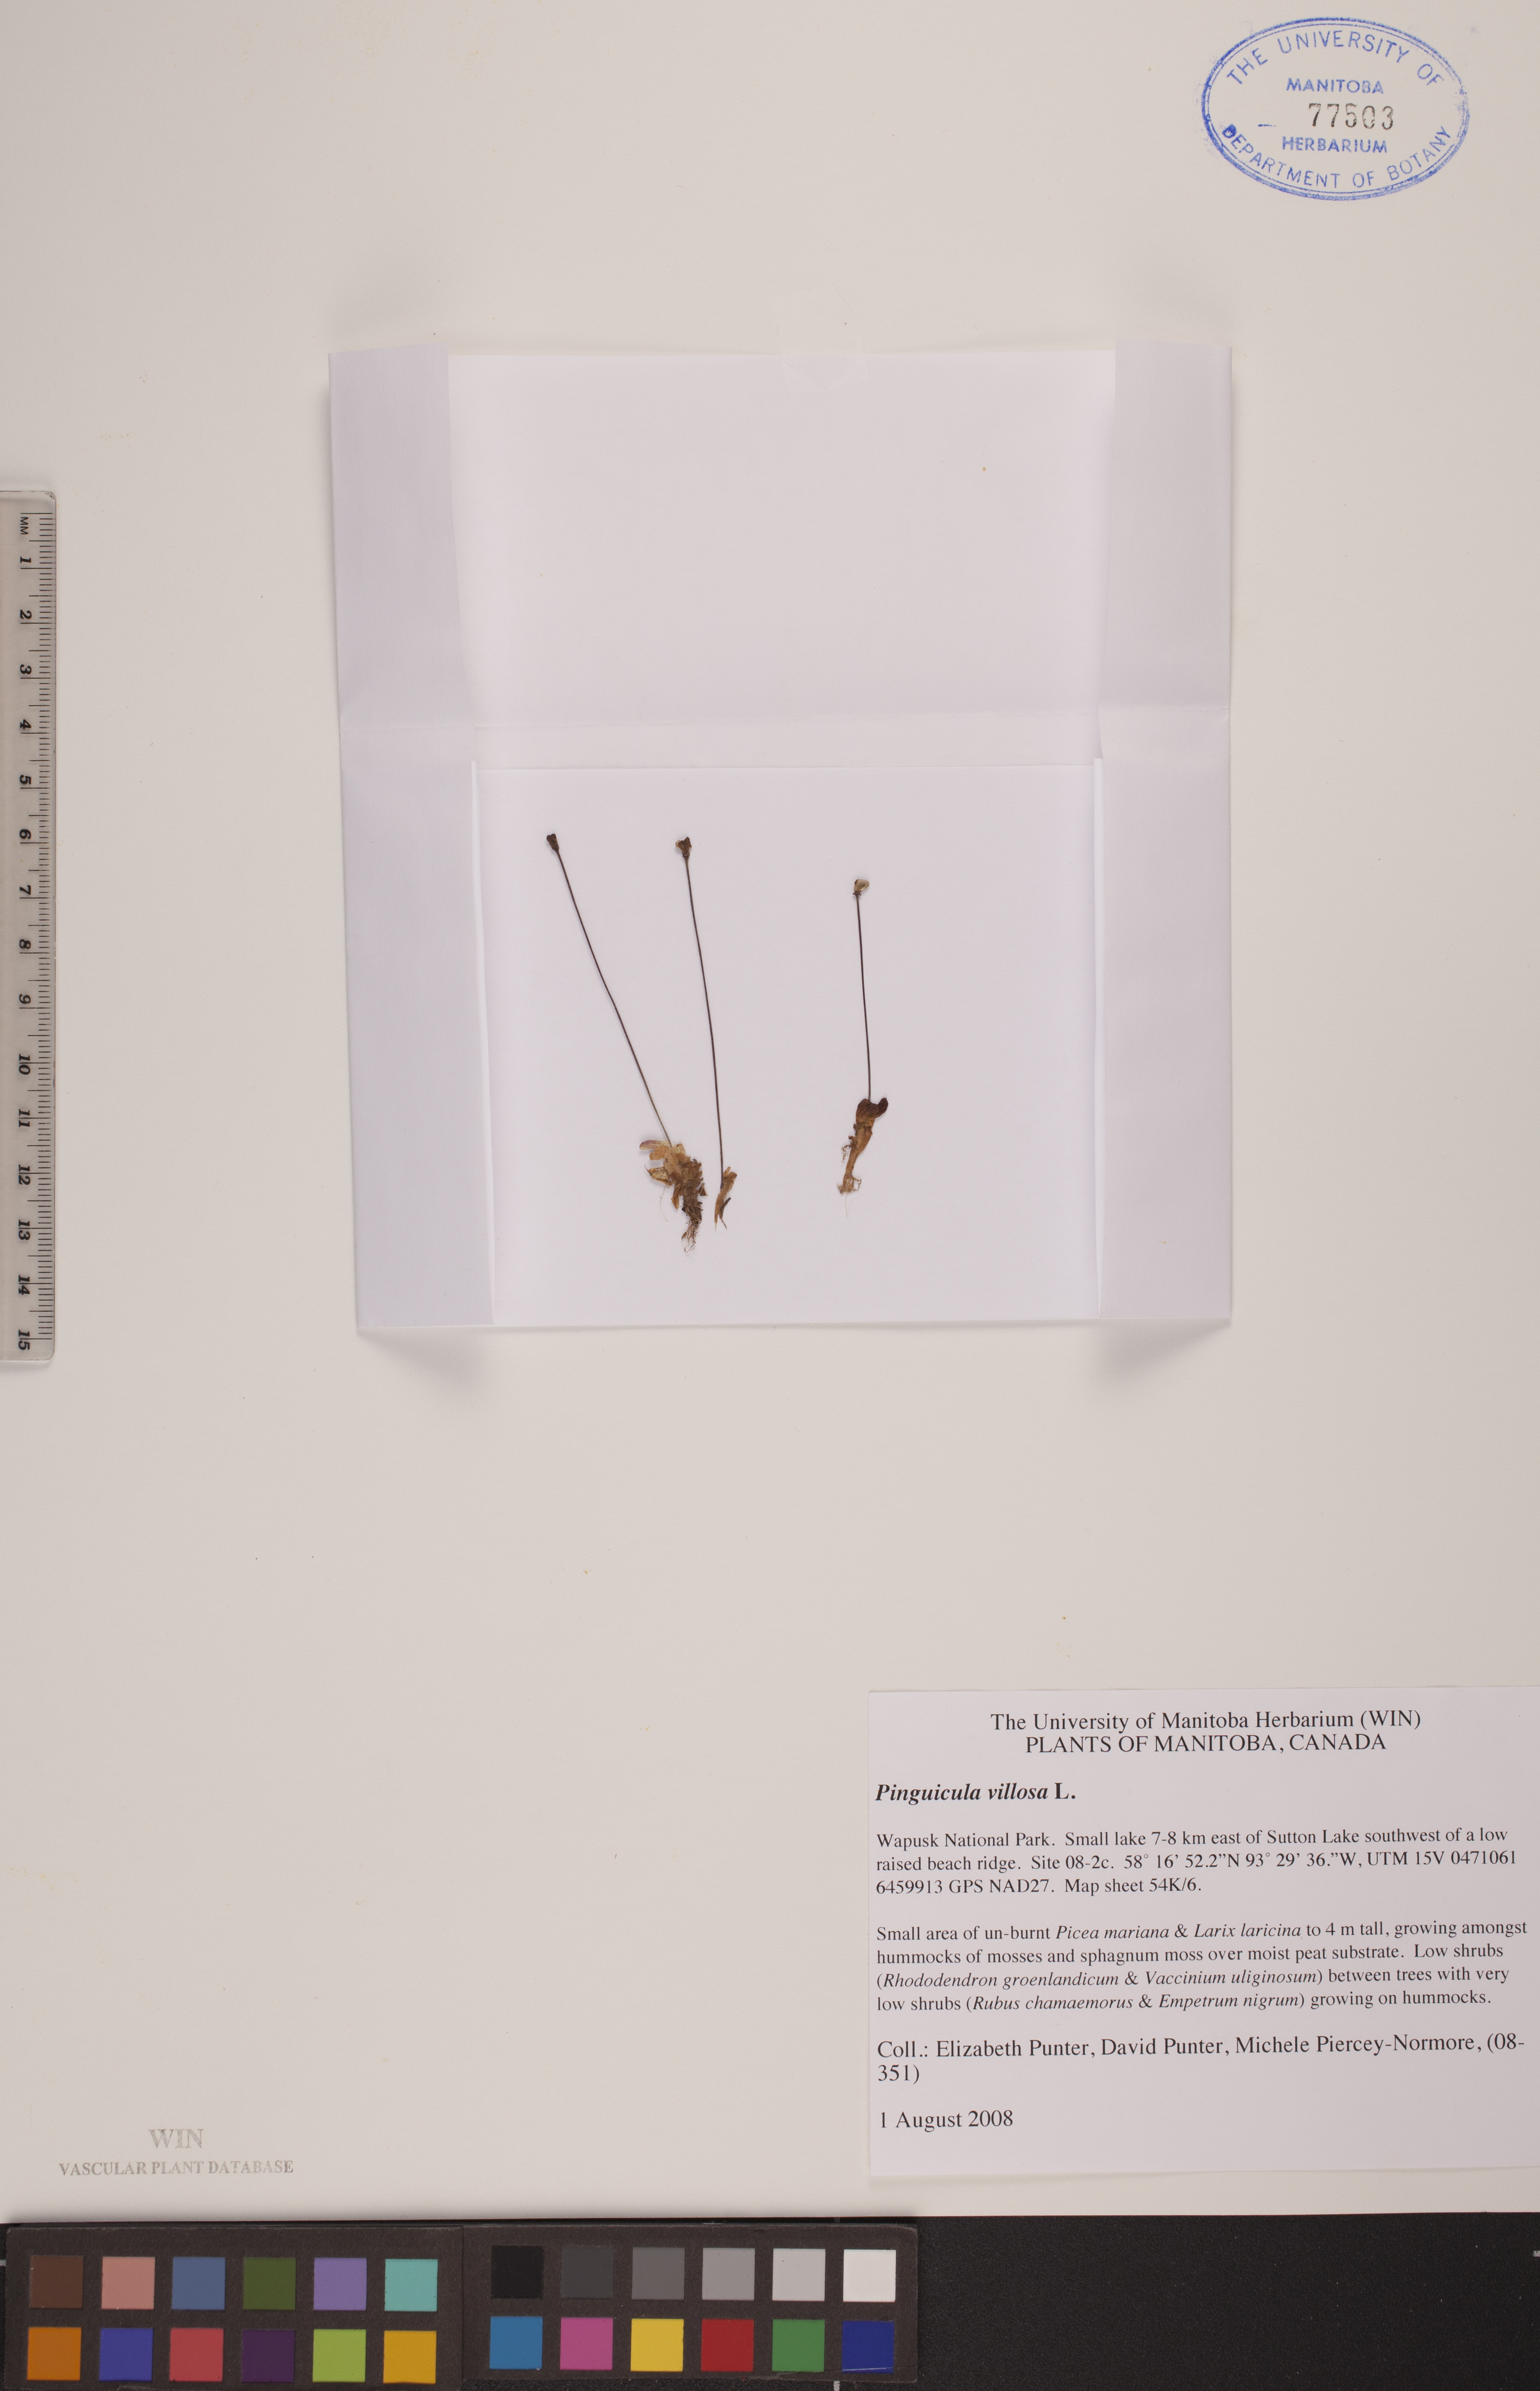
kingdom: Plantae
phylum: Tracheophyta
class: Magnoliopsida
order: Lamiales
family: Lentibulariaceae
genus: Pinguicula
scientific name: Pinguicula villosa
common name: Hairy butterwort
